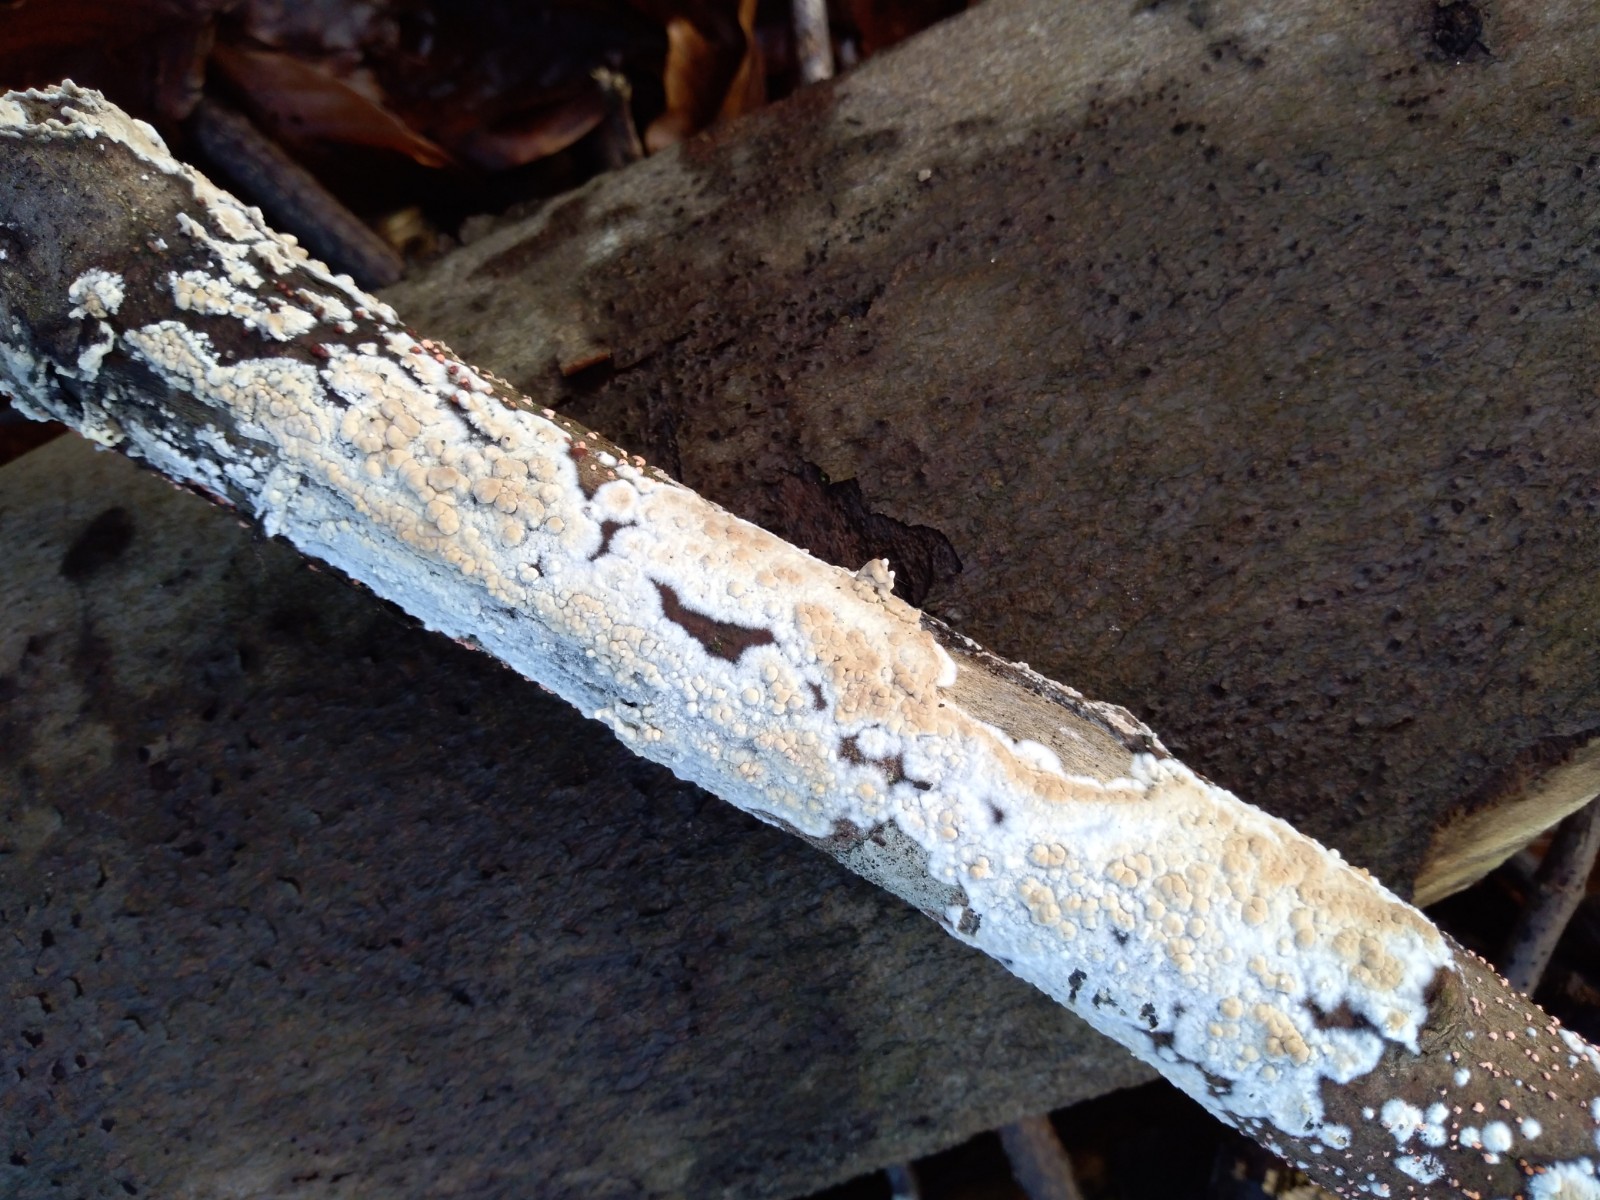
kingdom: Fungi
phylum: Basidiomycota
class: Agaricomycetes
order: Corticiales
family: Corticiaceae
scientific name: Corticiaceae
